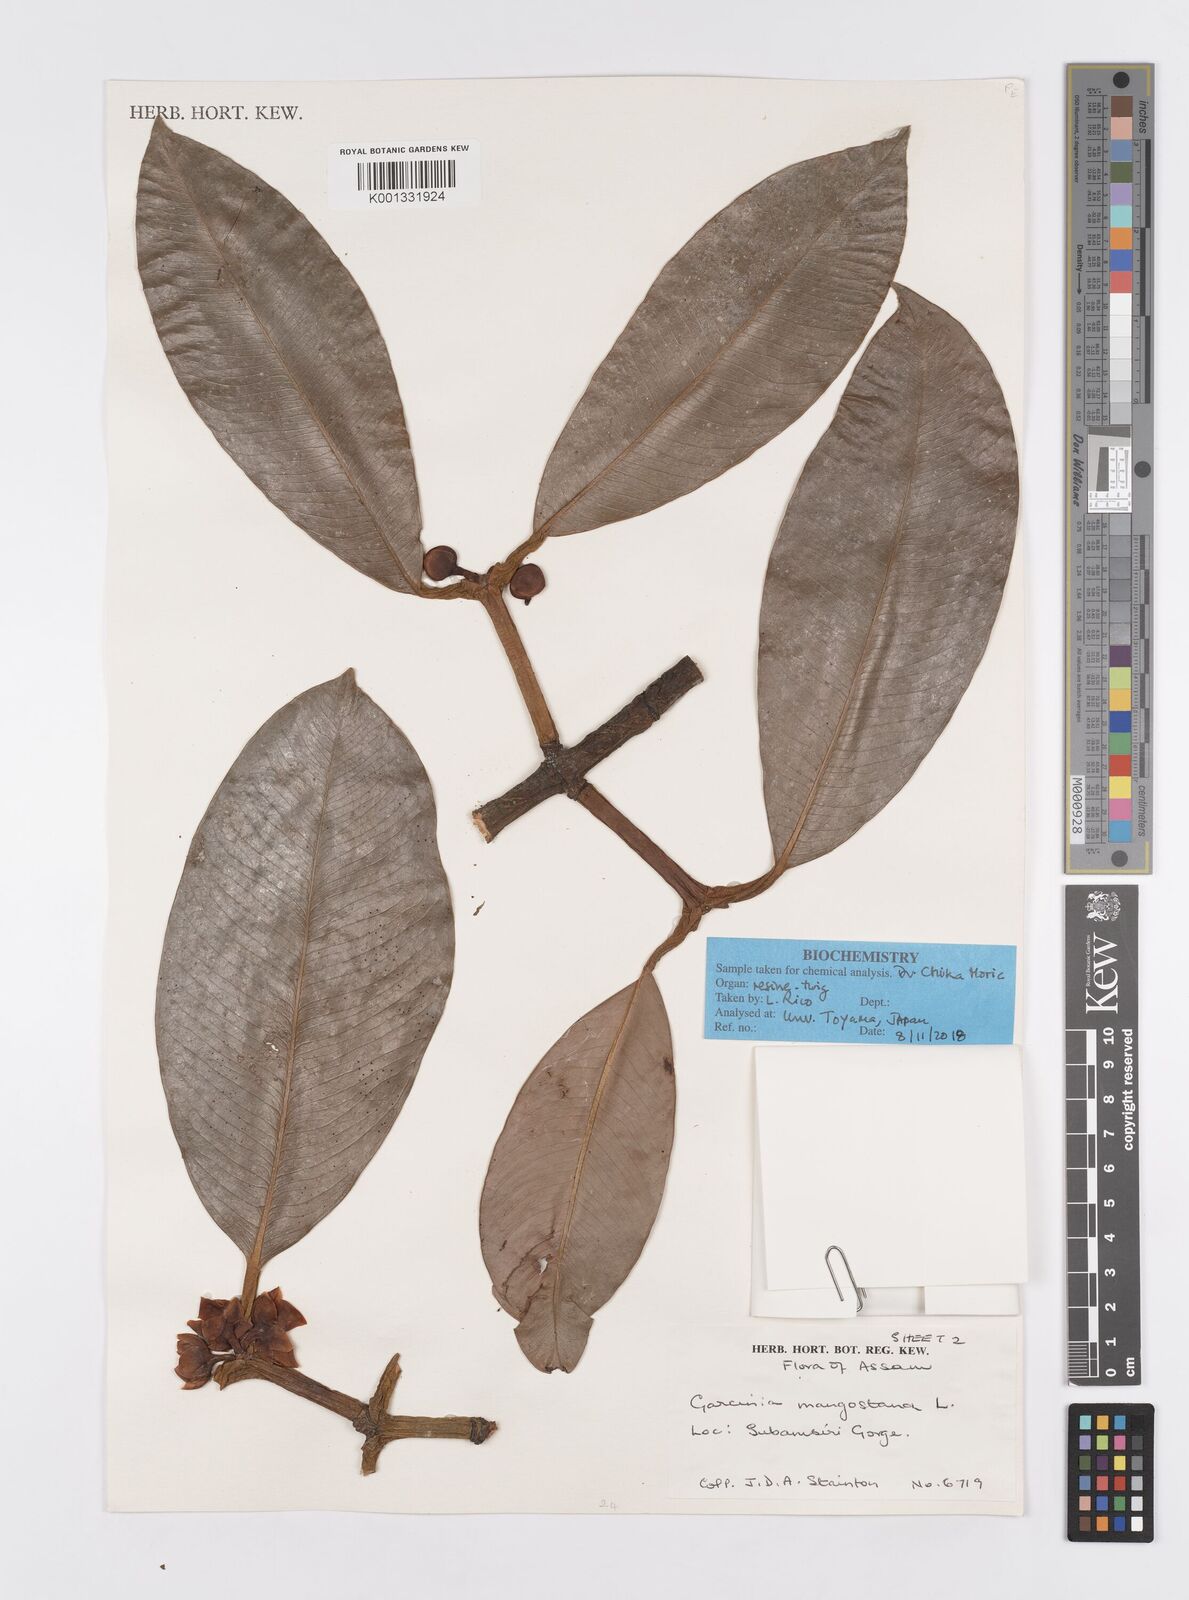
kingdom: Plantae
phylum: Tracheophyta
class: Magnoliopsida
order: Malpighiales
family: Clusiaceae
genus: Garcinia
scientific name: Garcinia mangostana
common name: Mangosteen
